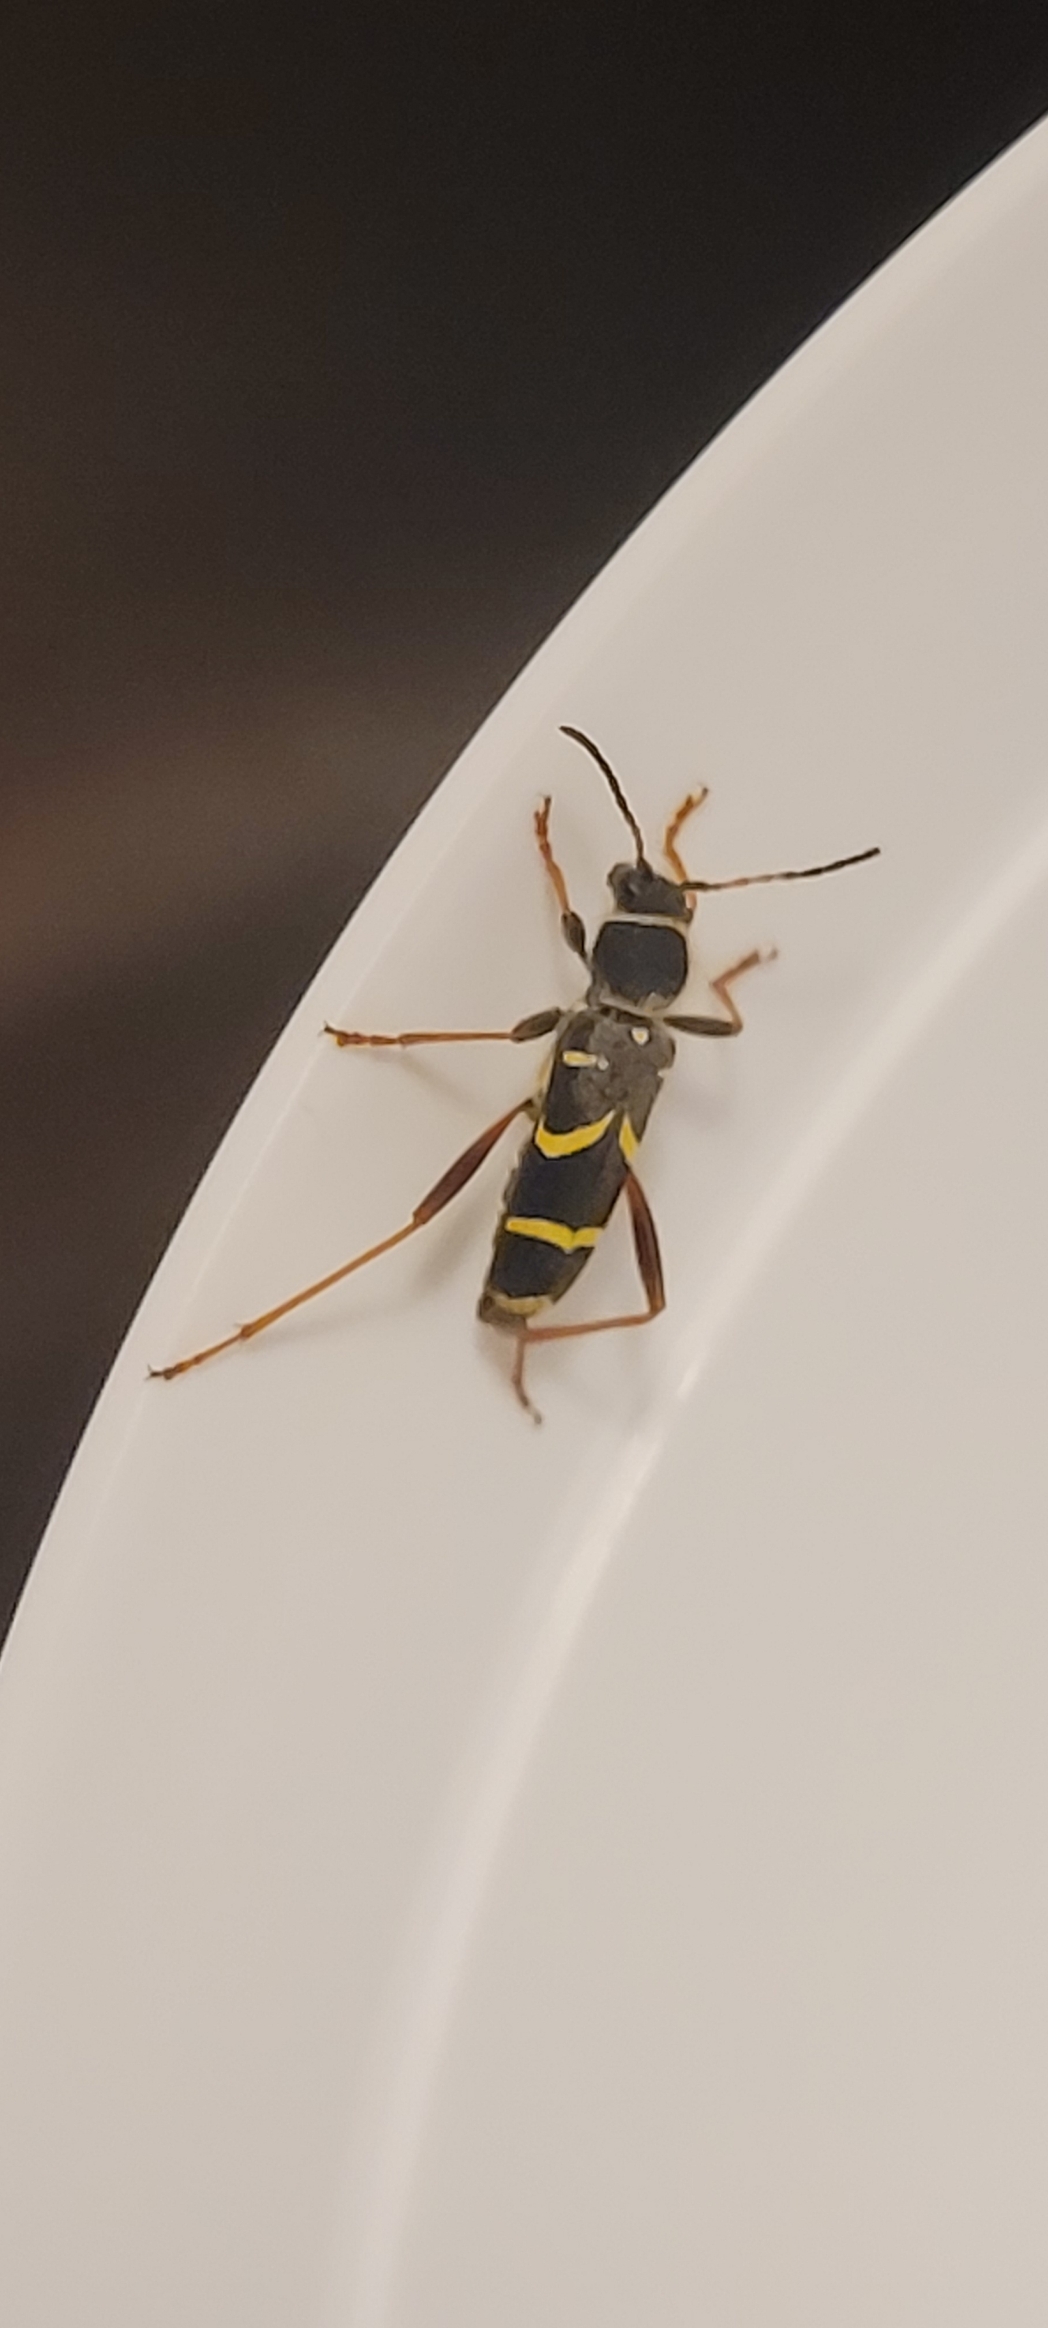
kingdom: Animalia
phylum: Arthropoda
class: Insecta
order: Coleoptera
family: Cerambycidae
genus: Clytus
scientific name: Clytus arietis
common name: Lille hvepsebuk
